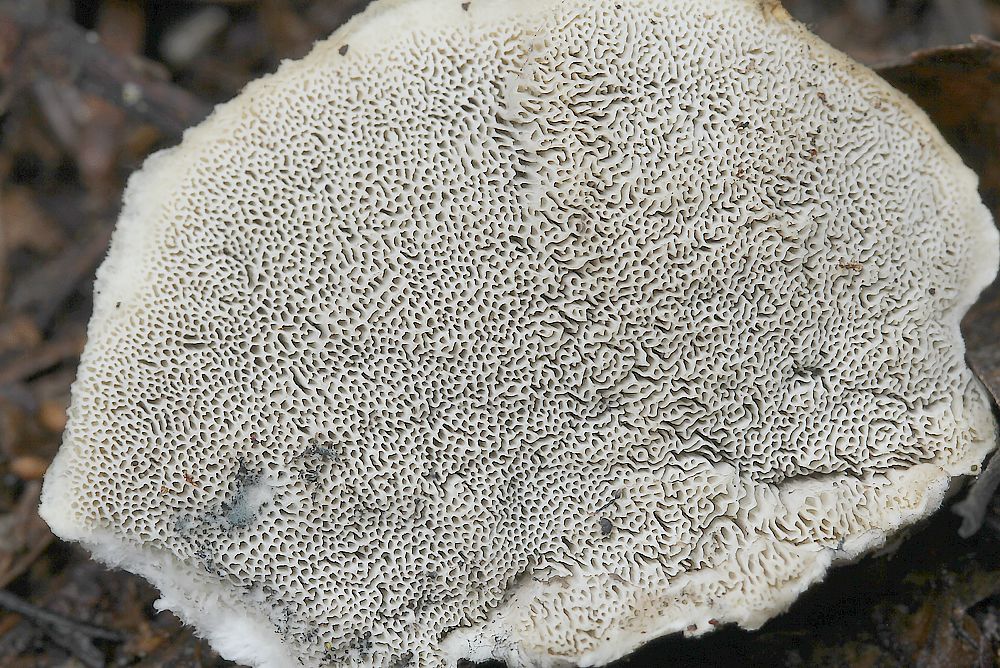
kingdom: Fungi
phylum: Basidiomycota
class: Agaricomycetes
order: Polyporales
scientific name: Polyporales
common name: poresvampordenen
